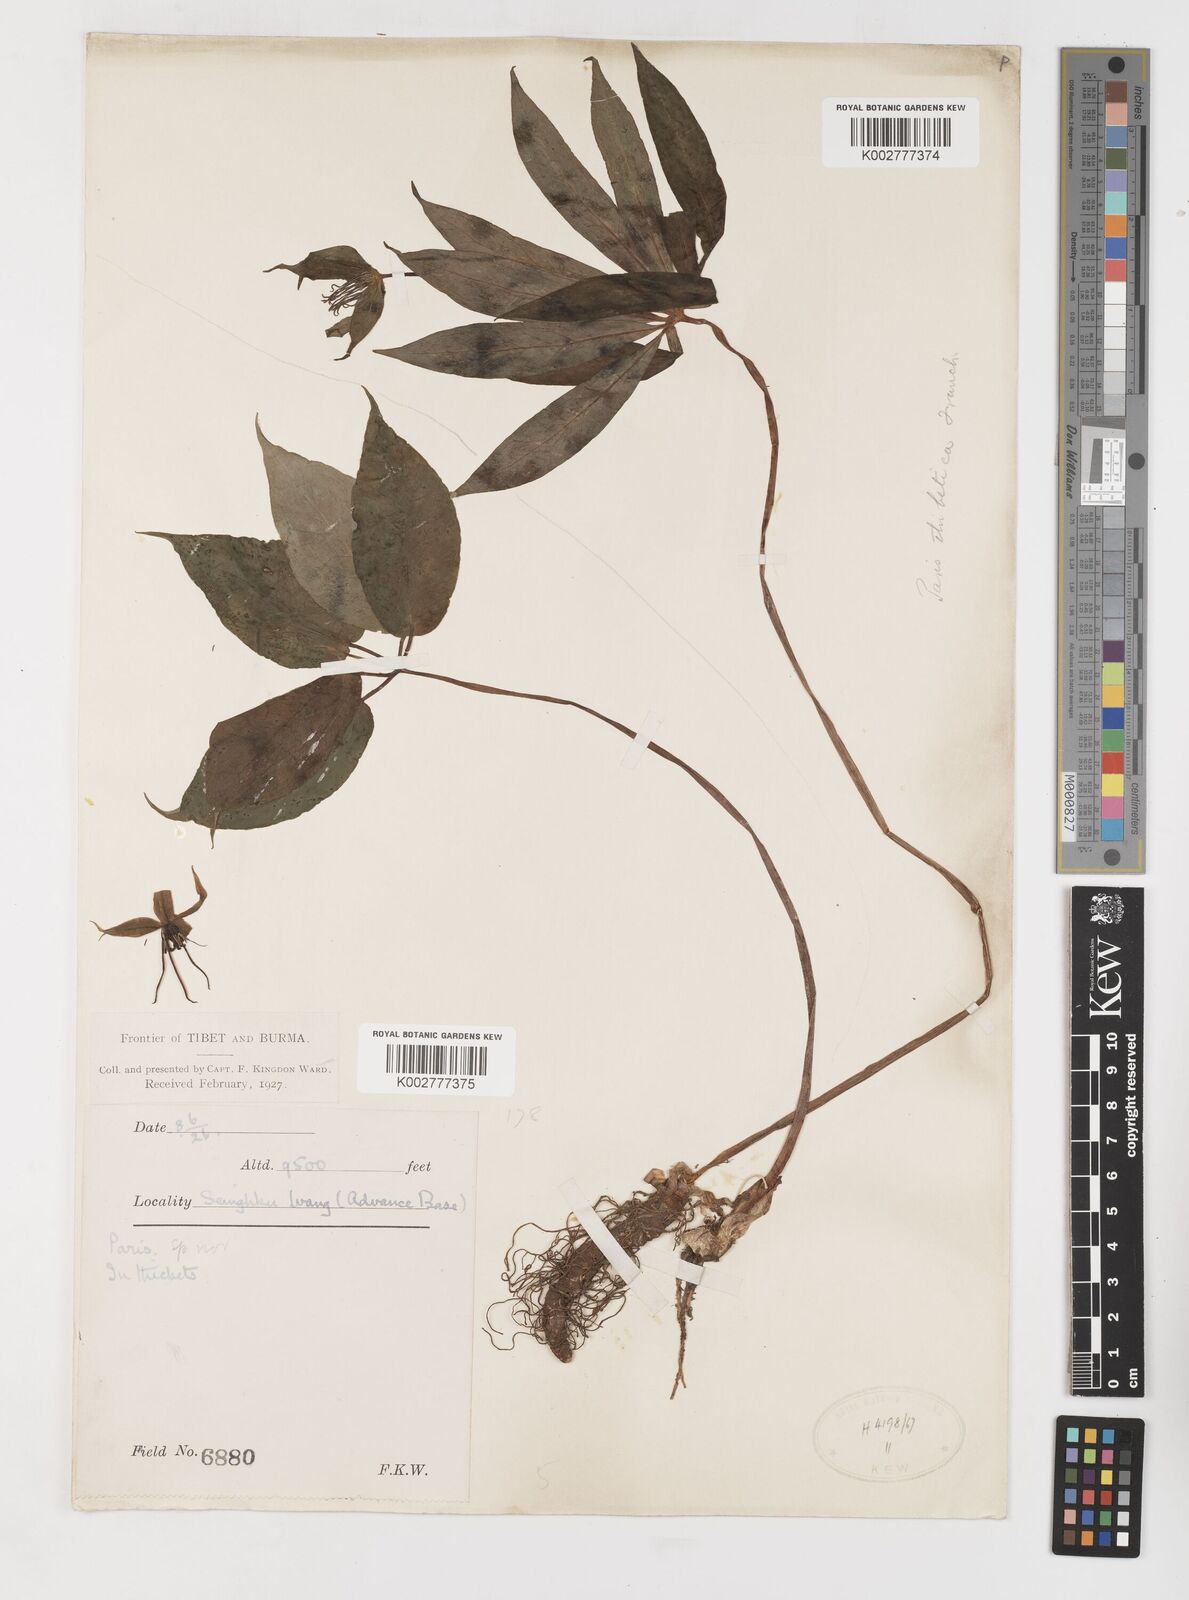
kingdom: Plantae
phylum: Tracheophyta
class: Liliopsida
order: Liliales
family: Melanthiaceae
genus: Paris
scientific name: Paris
